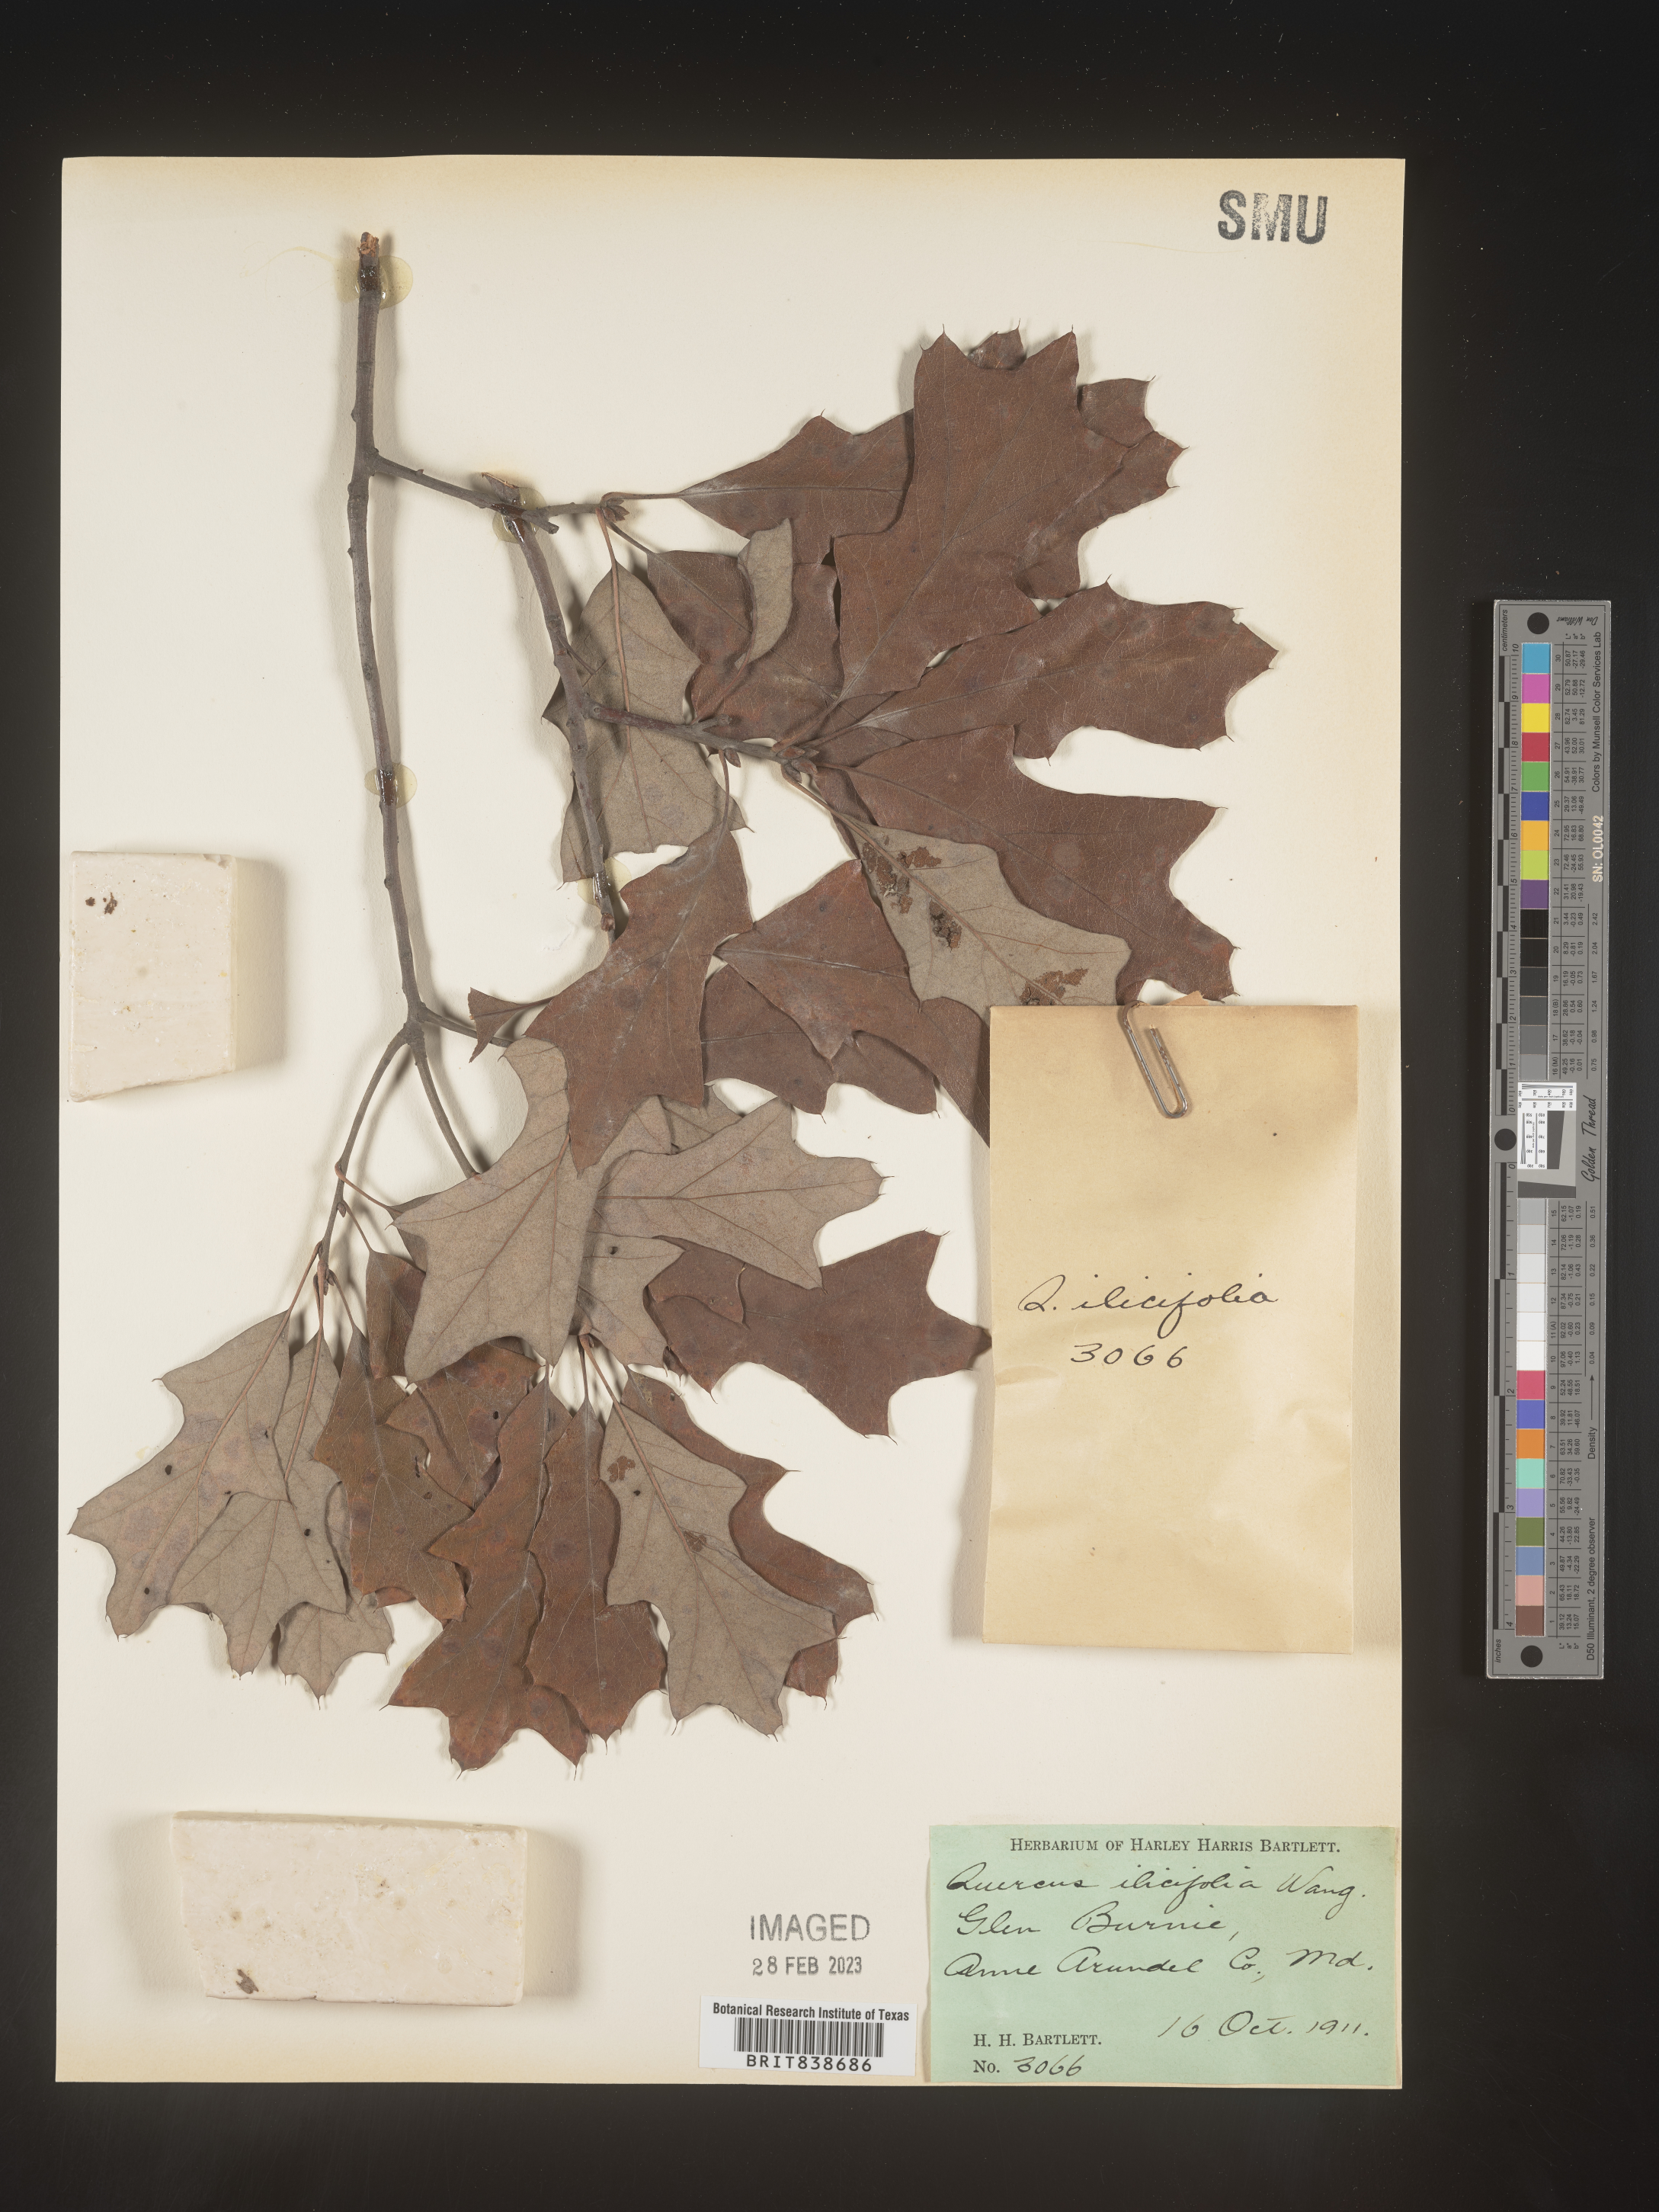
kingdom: Plantae
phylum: Tracheophyta
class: Magnoliopsida
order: Fagales
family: Fagaceae
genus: Quercus
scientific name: Quercus ilicifolia
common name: Bear oak
